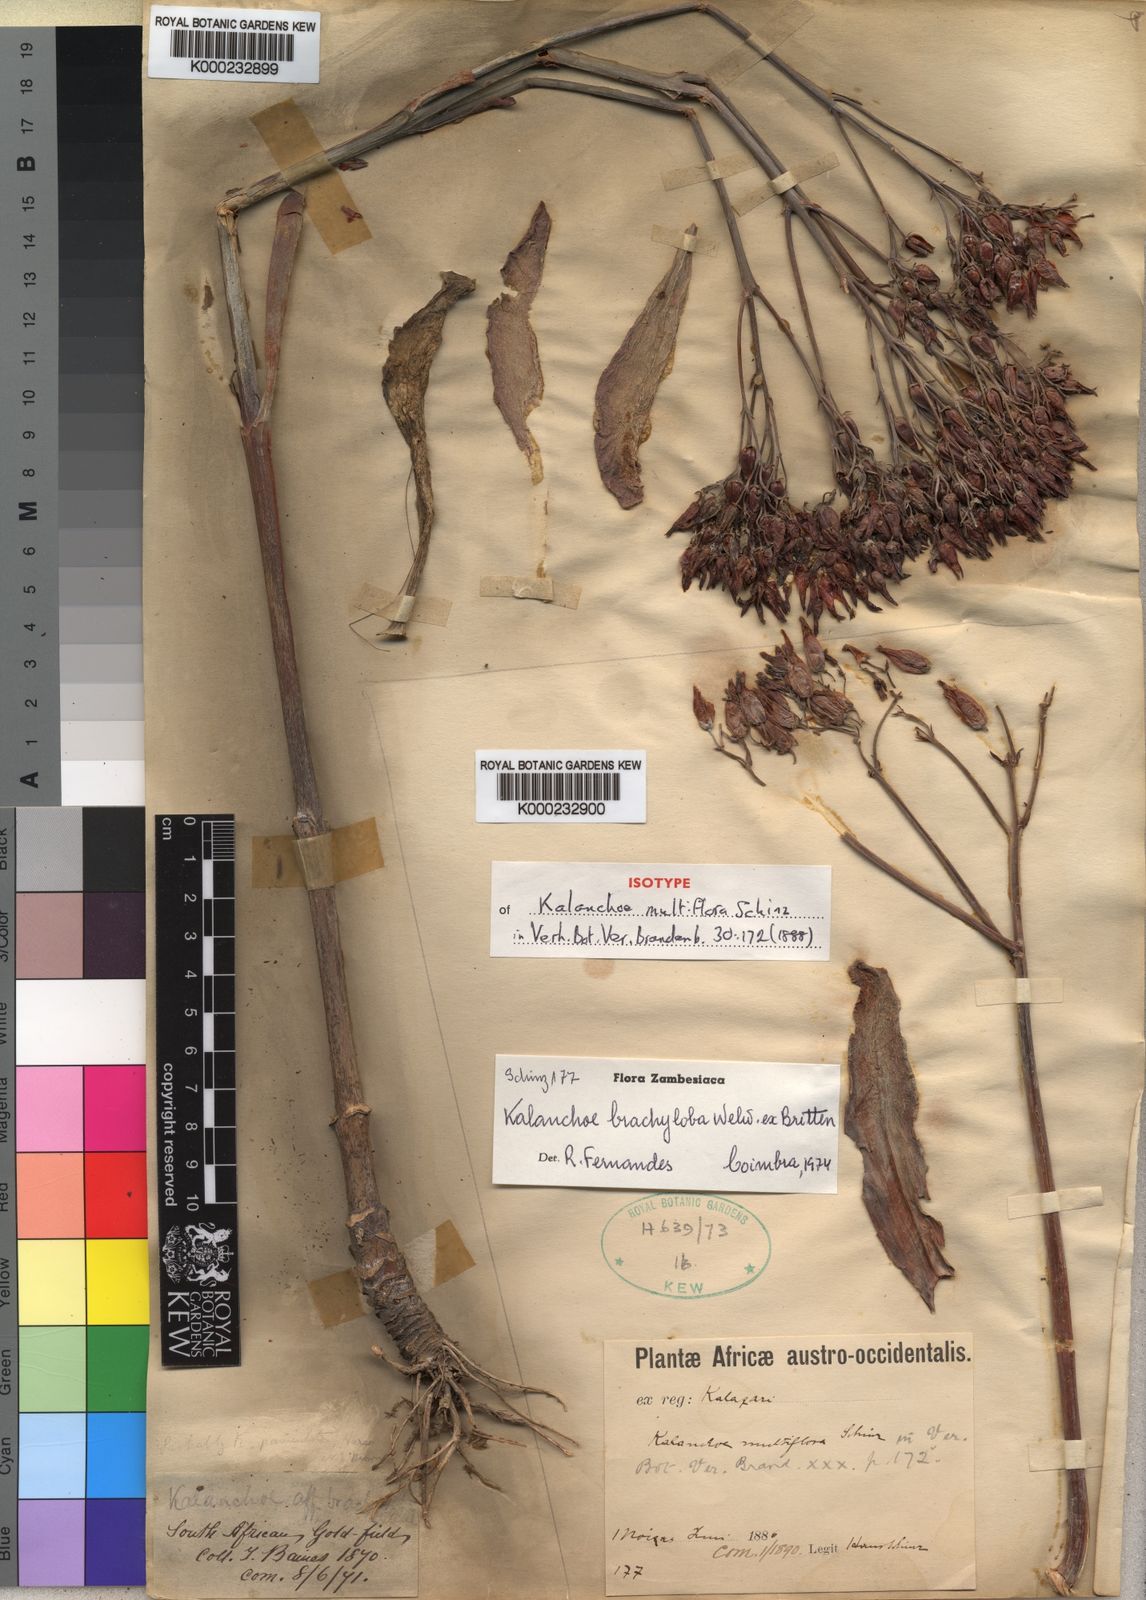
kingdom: Plantae
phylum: Tracheophyta
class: Magnoliopsida
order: Saxifragales
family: Crassulaceae
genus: Kalanchoe
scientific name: Kalanchoe brachyloba
